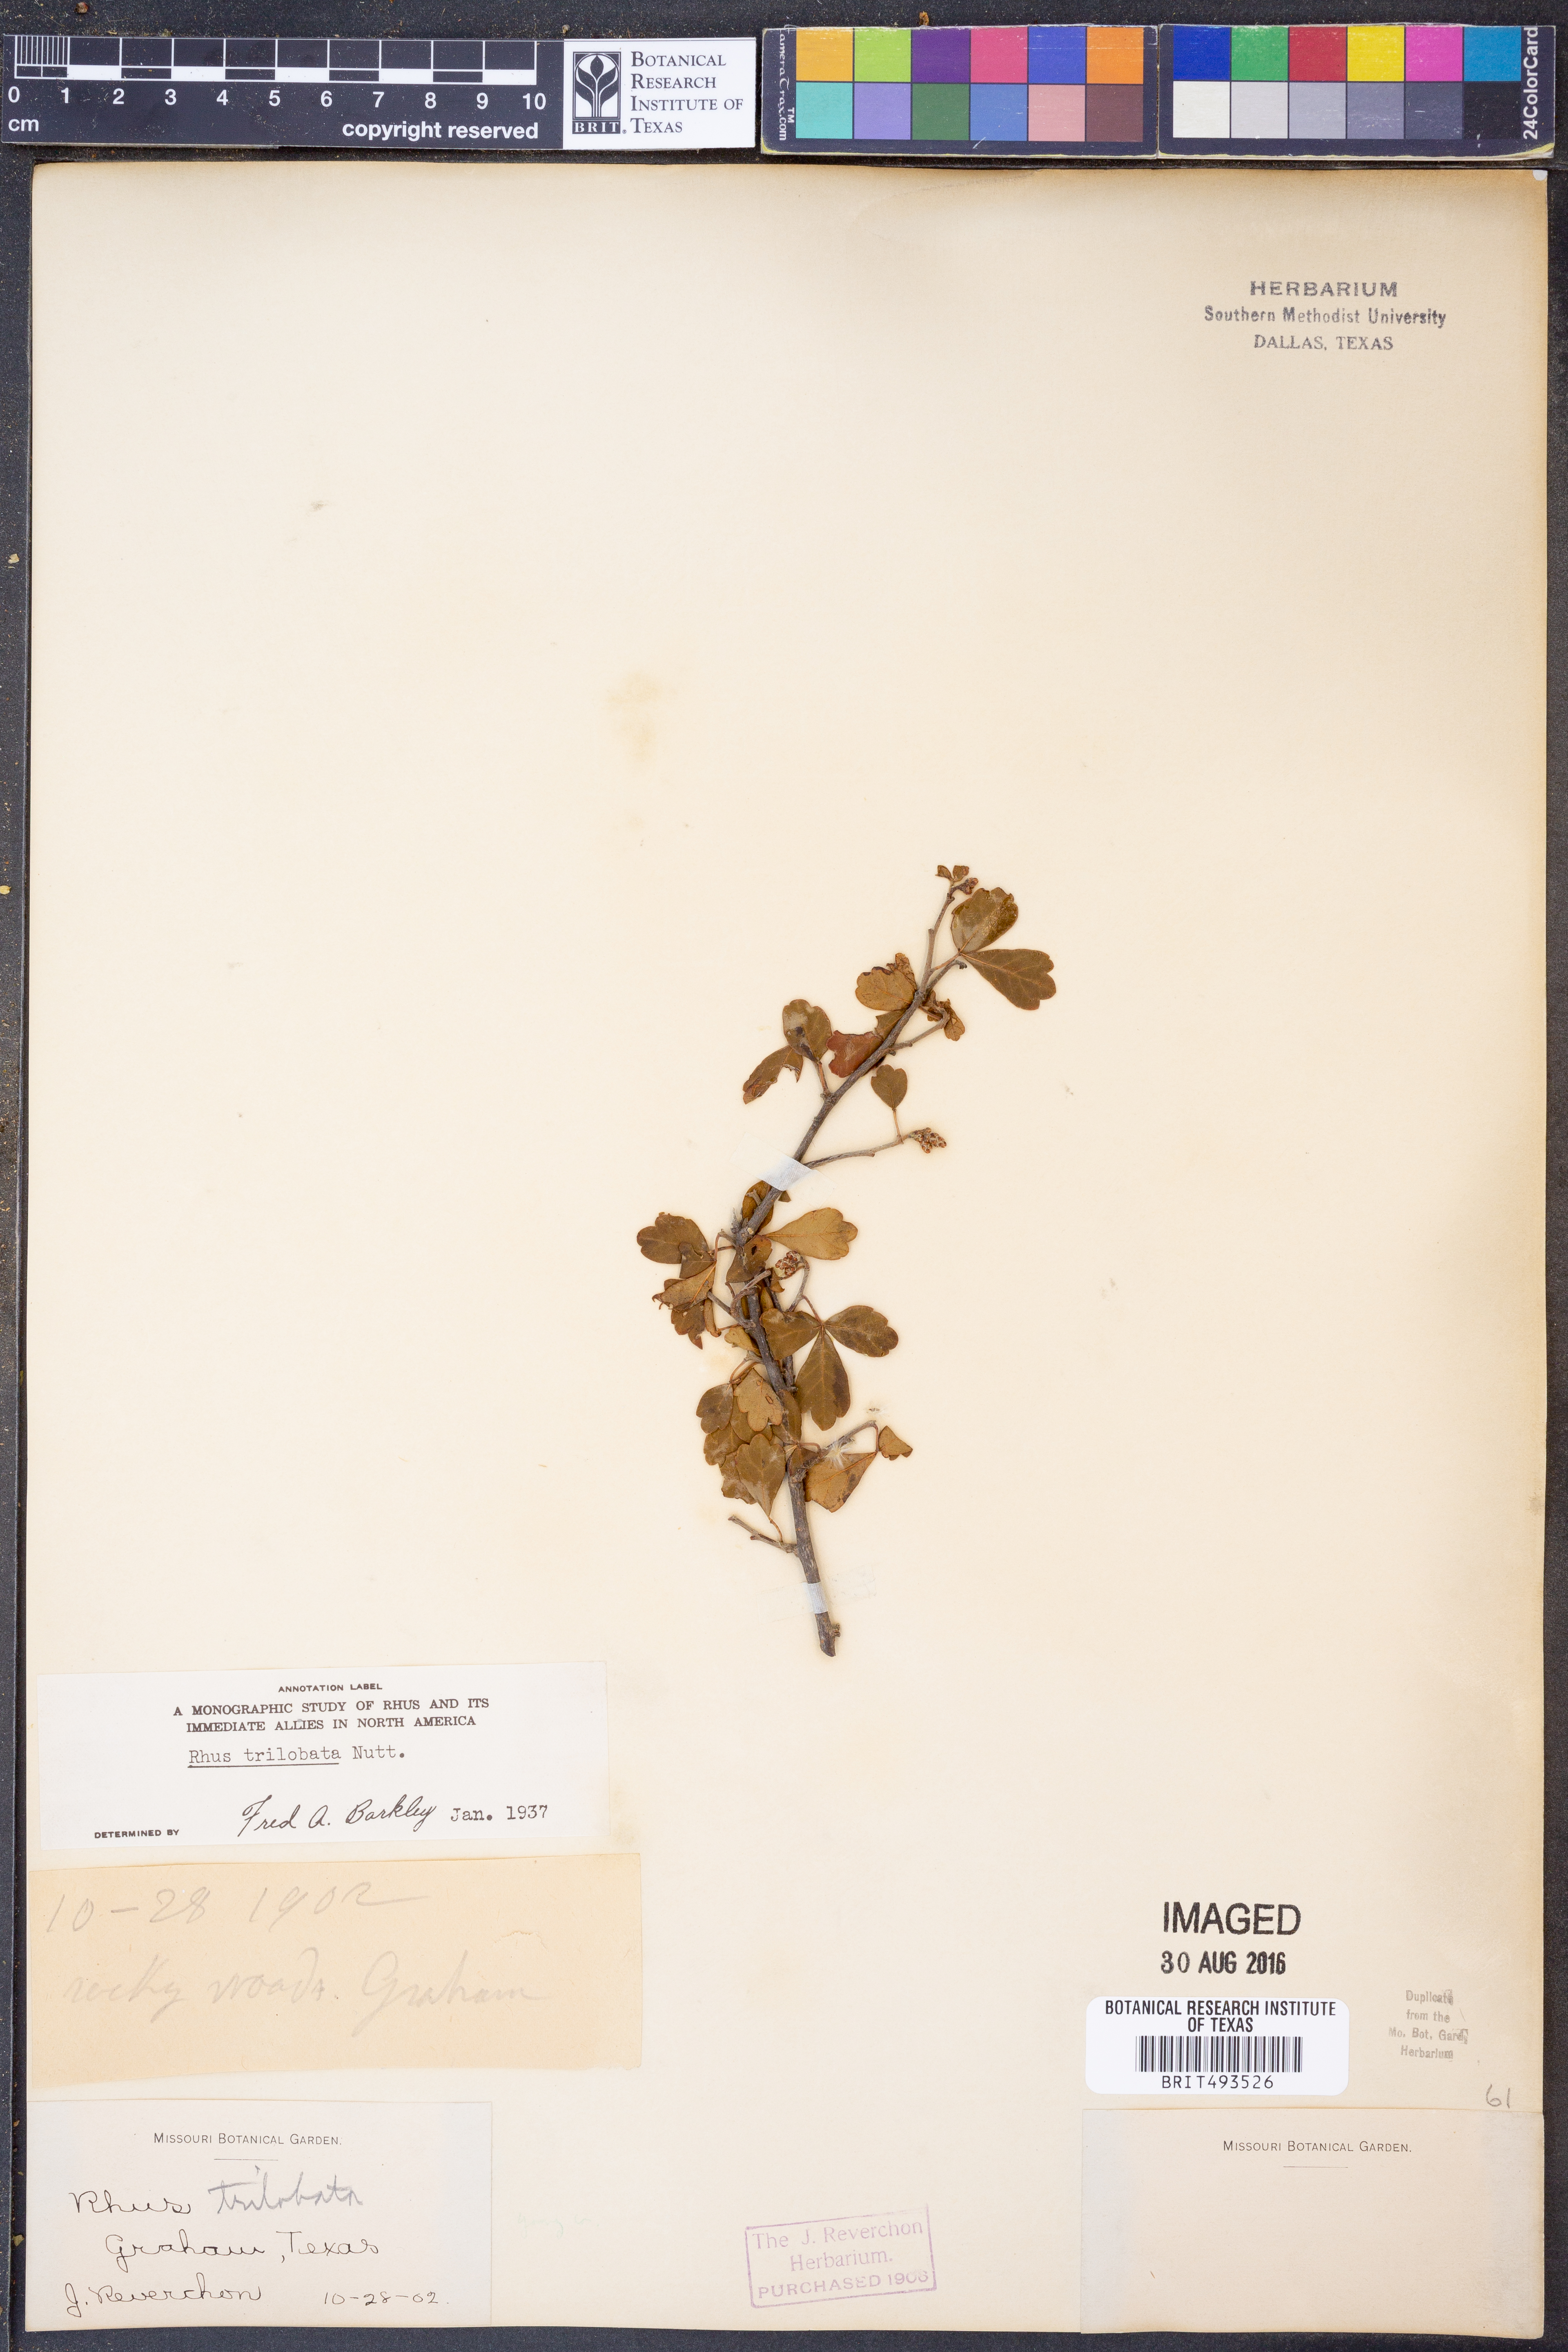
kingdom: Plantae
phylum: Tracheophyta
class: Magnoliopsida
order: Sapindales
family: Anacardiaceae
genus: Rhus
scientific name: Rhus trilobata
